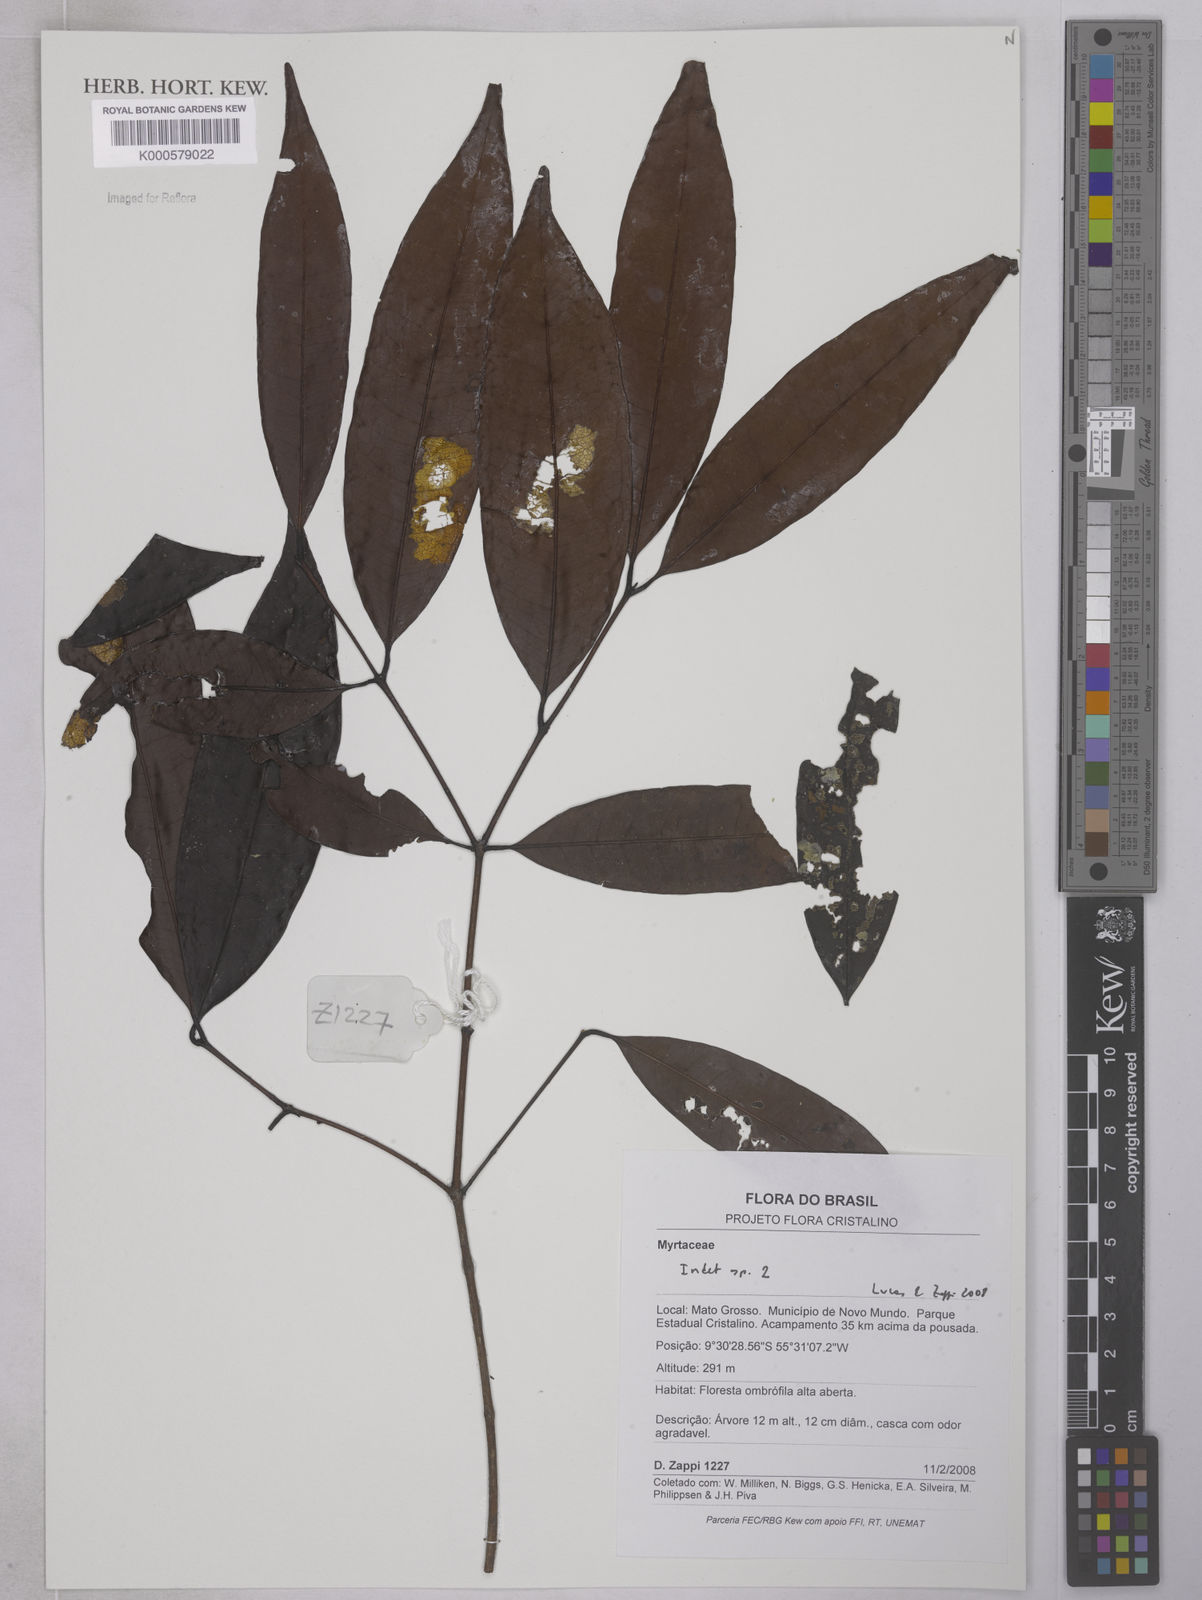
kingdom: Plantae
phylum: Tracheophyta
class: Magnoliopsida
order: Myrtales
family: Myrtaceae
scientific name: Myrtaceae
